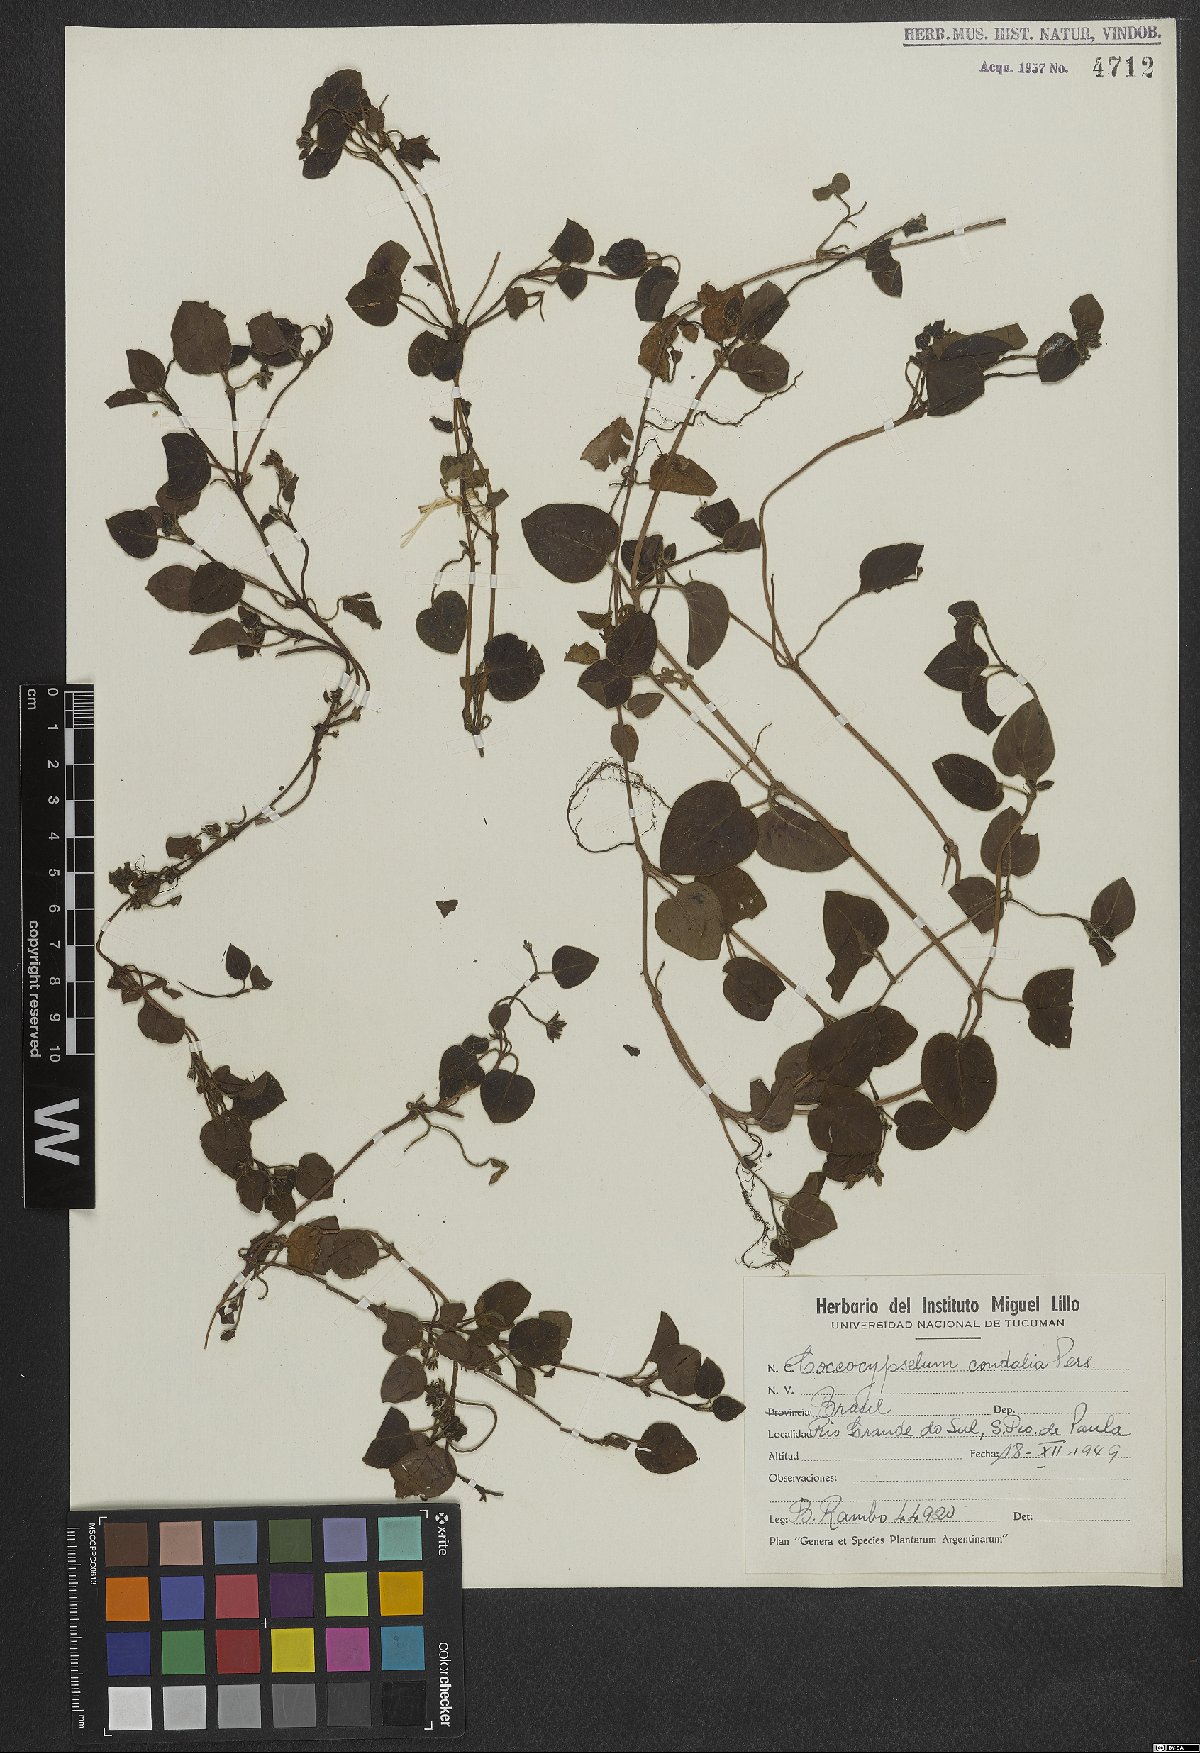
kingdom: Plantae
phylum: Tracheophyta
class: Magnoliopsida
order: Gentianales
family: Rubiaceae
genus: Coccocypselum
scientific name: Coccocypselum condalia
